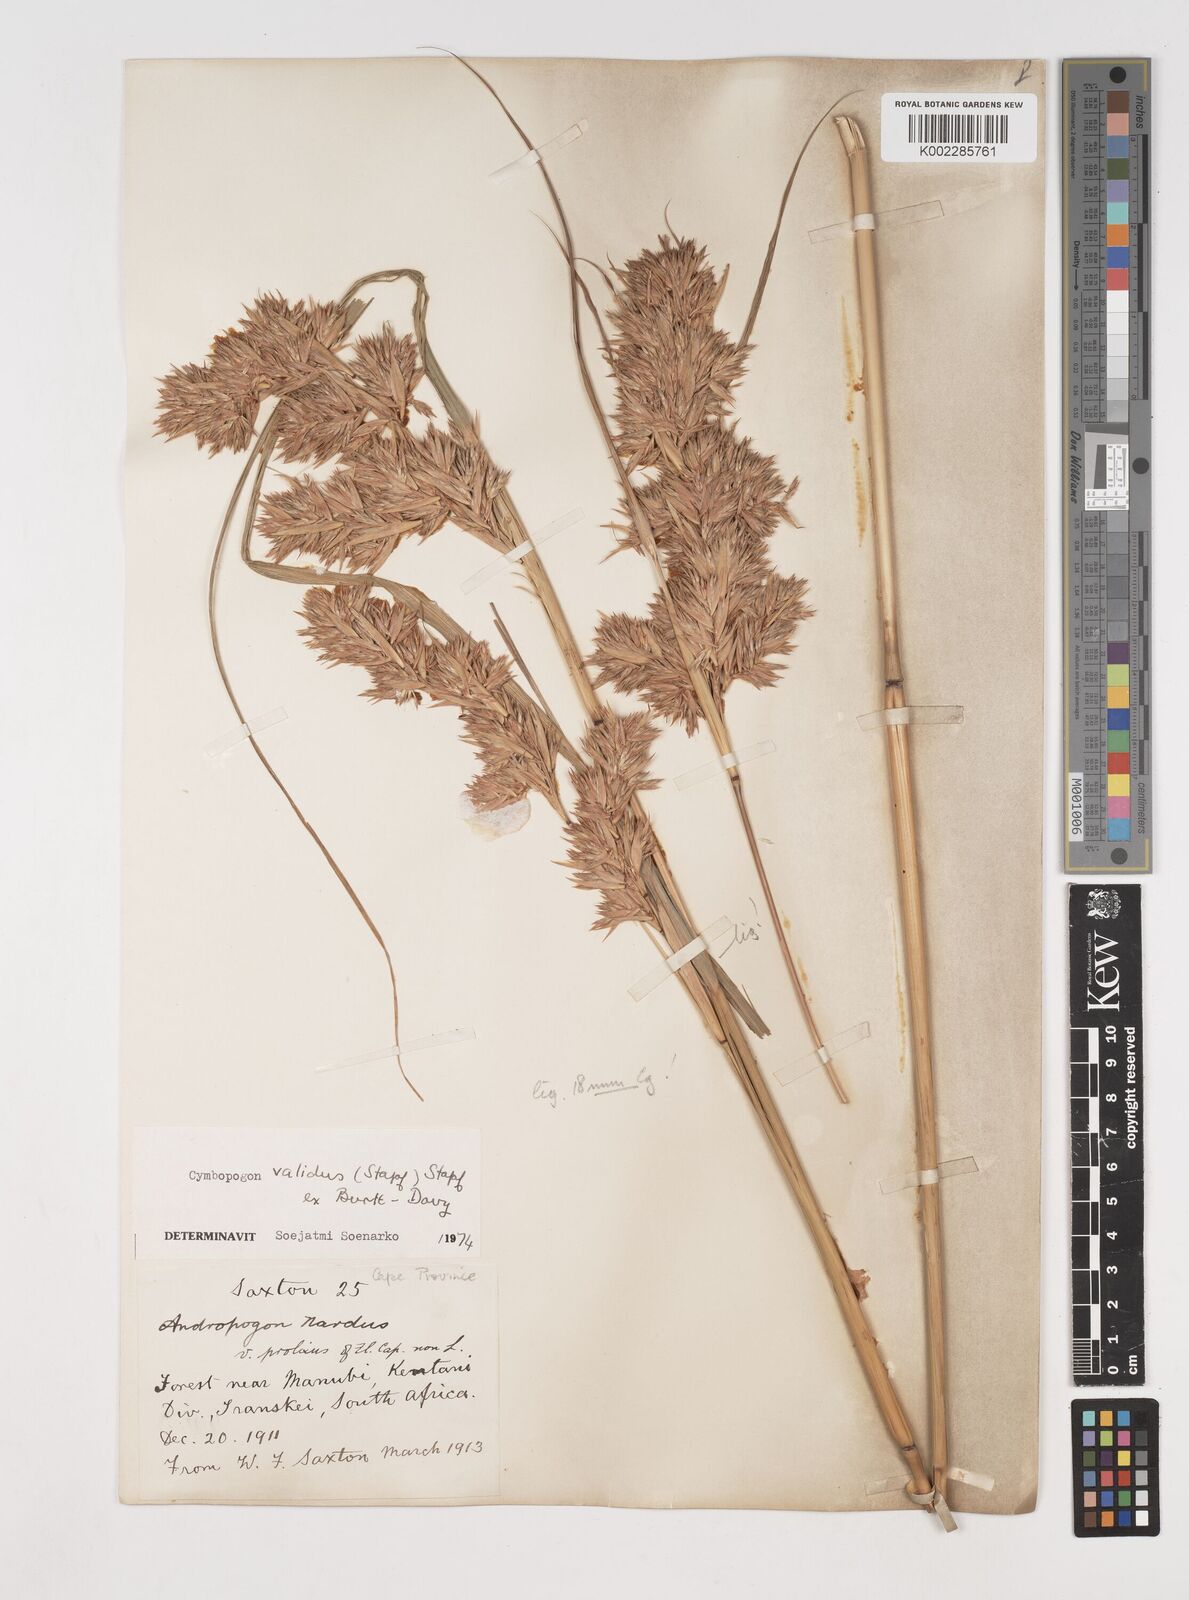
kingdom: Plantae
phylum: Tracheophyta
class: Liliopsida
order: Poales
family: Poaceae
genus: Cymbopogon
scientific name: Cymbopogon nardus
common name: Giant turpentine grass
